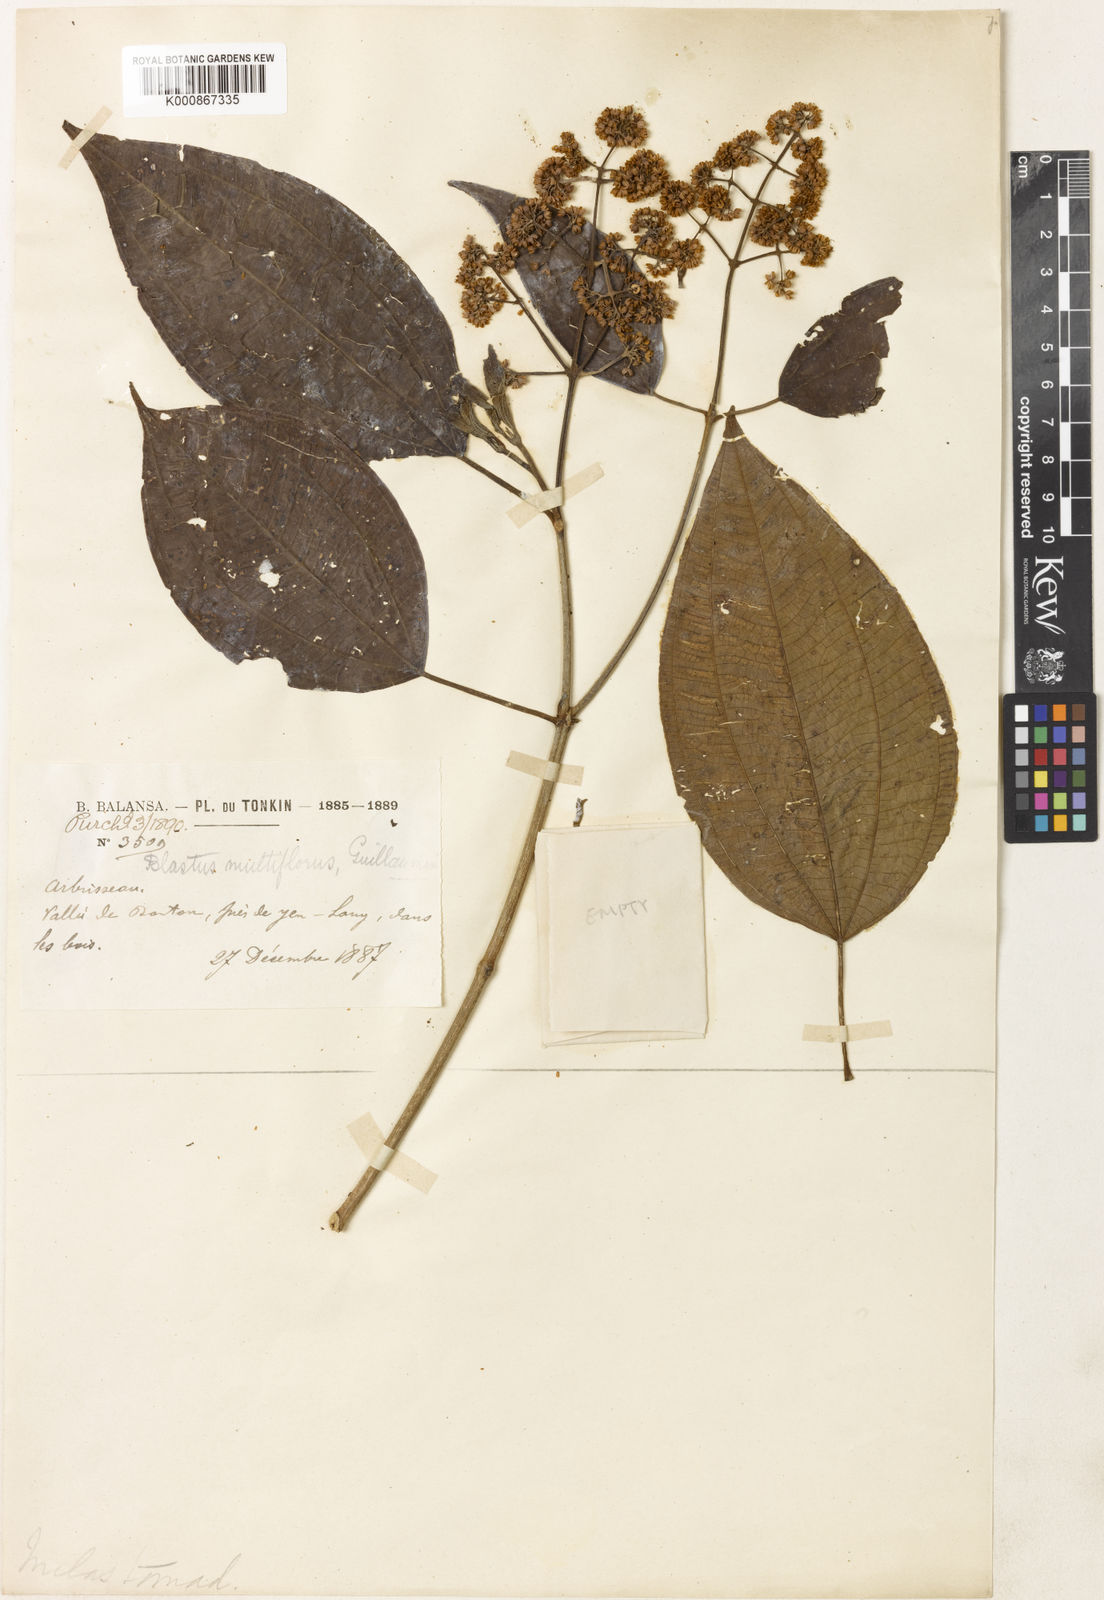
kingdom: Plantae
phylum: Tracheophyta
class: Magnoliopsida
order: Myrtales
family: Melastomataceae
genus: Blastus
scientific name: Blastus multiflorus
